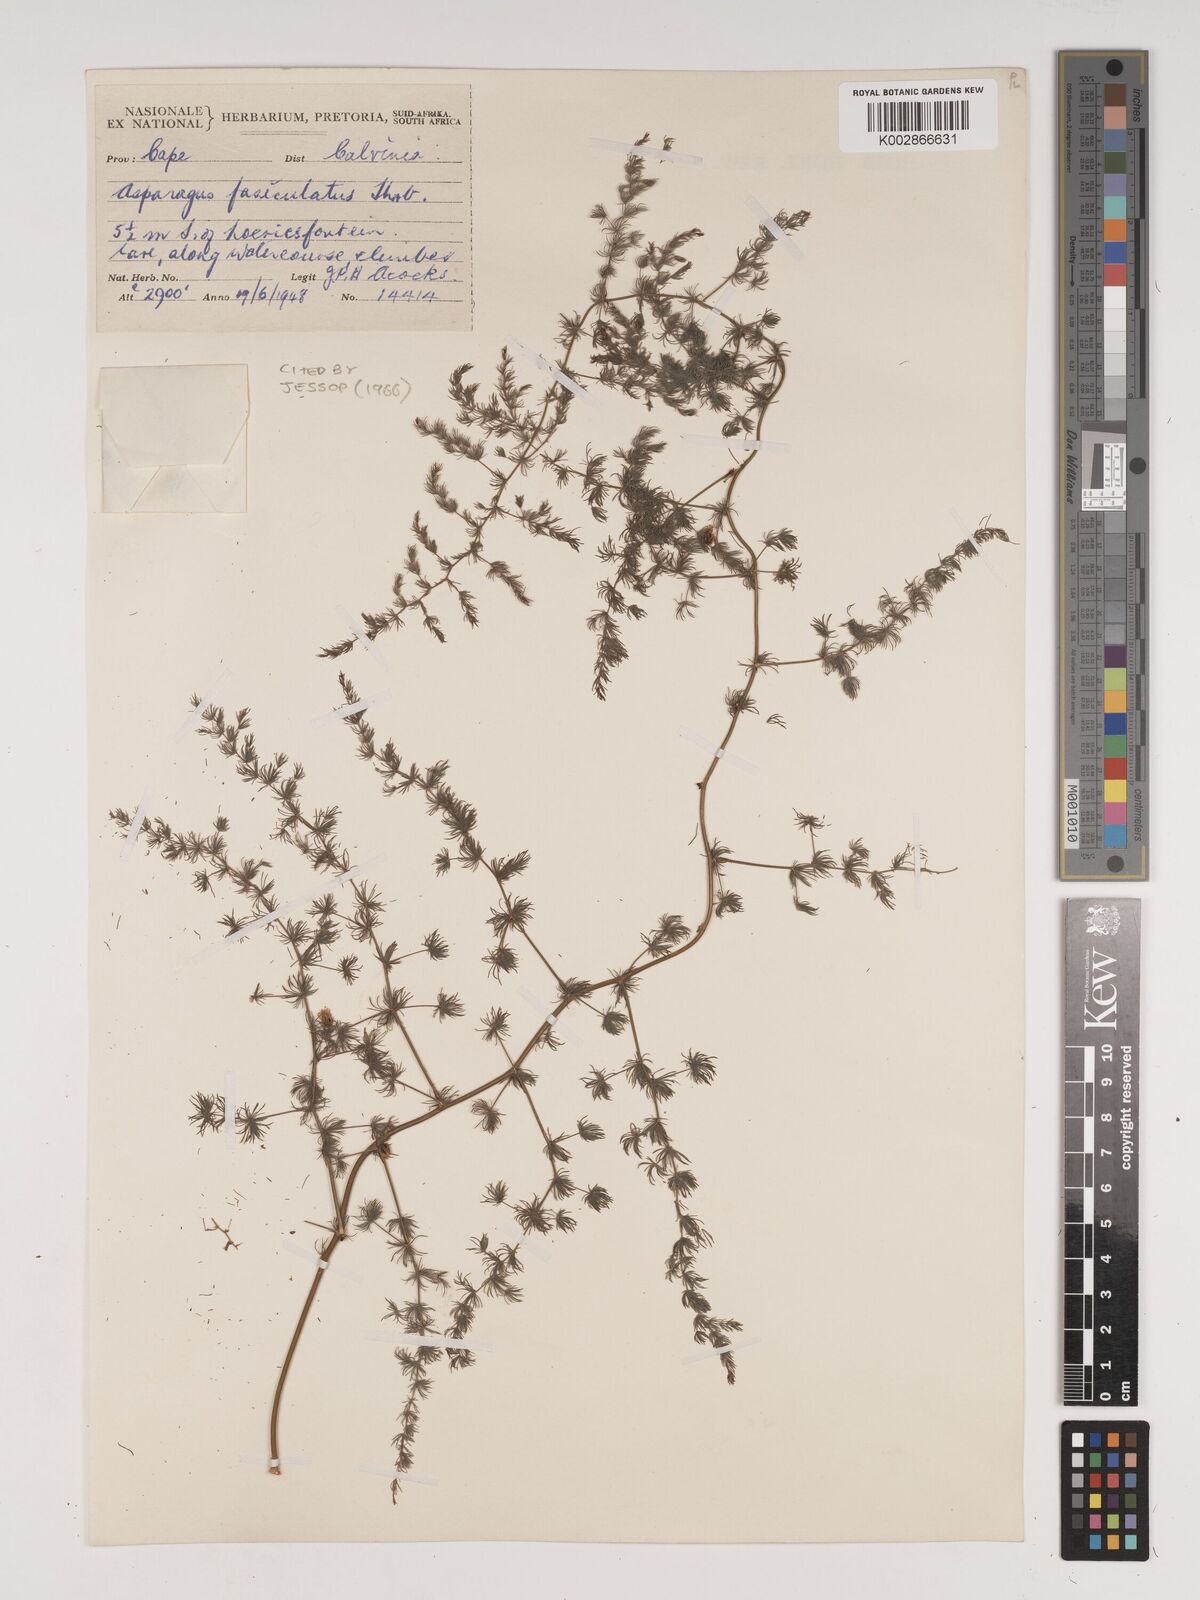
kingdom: Plantae
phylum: Tracheophyta
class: Liliopsida
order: Asparagales
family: Asparagaceae
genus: Asparagus
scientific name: Asparagus fasciculatus
